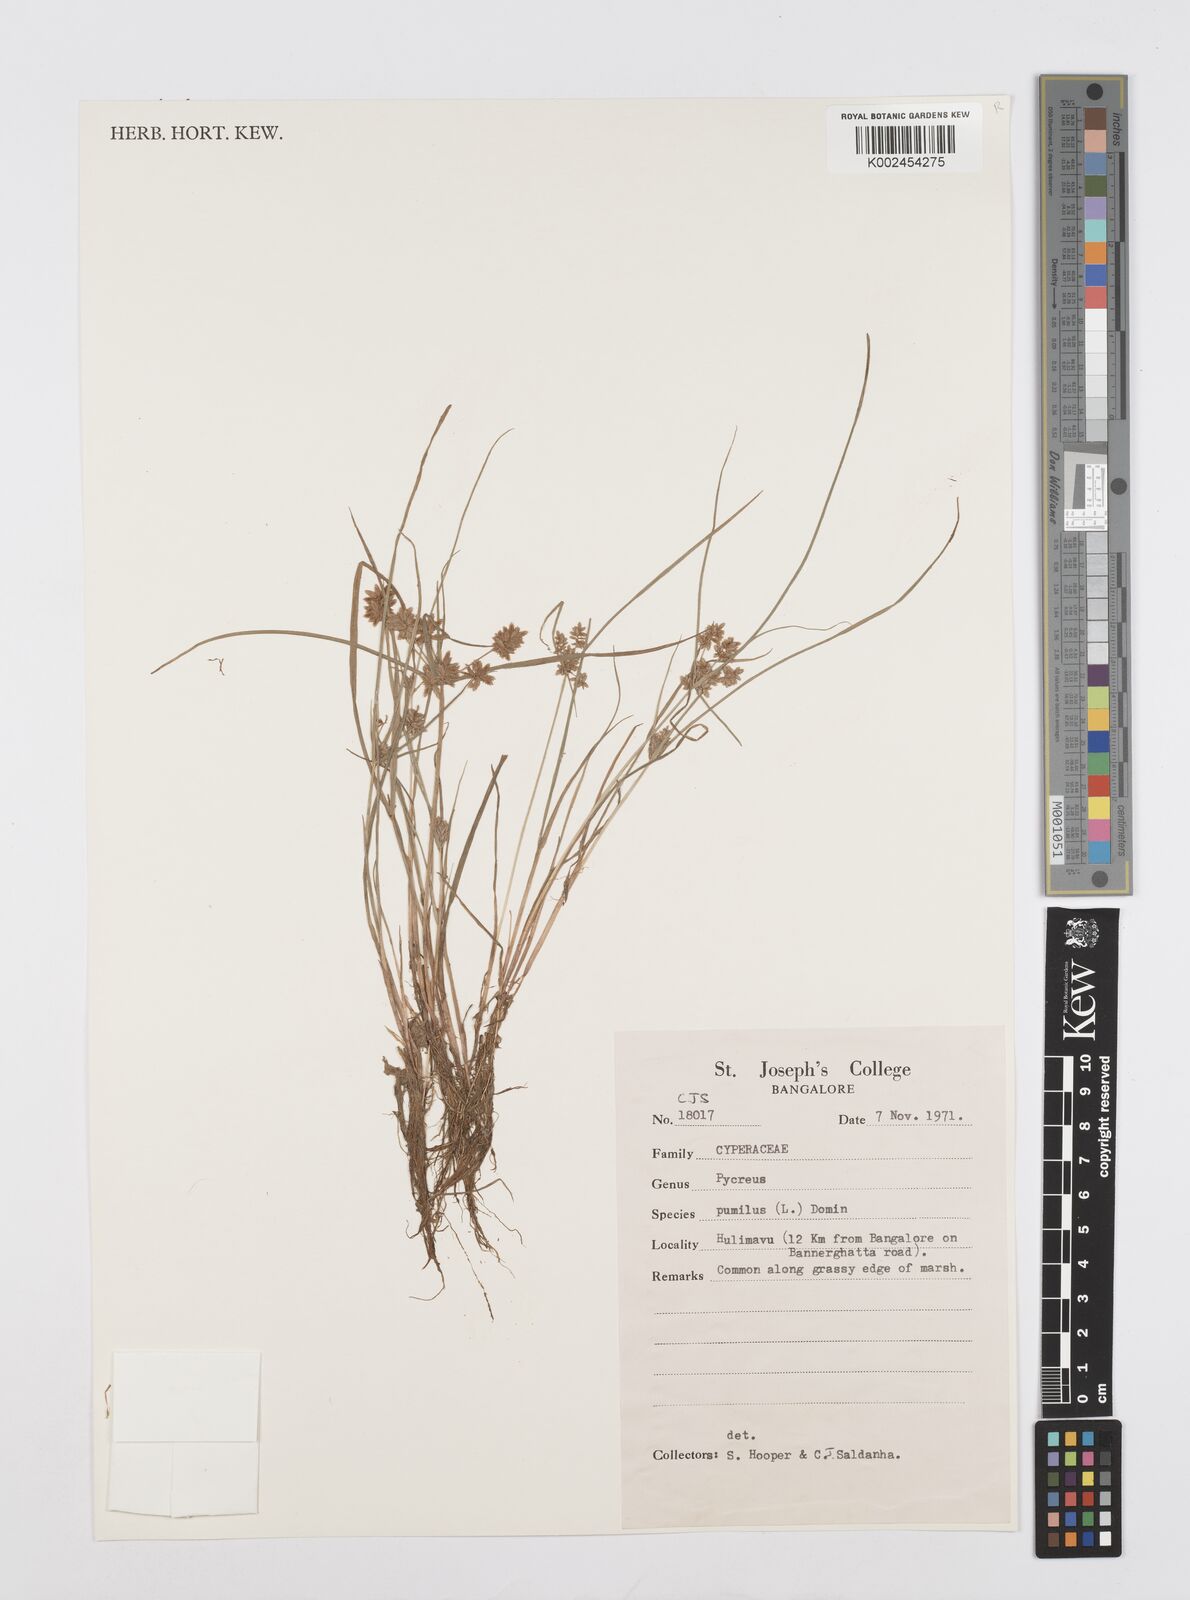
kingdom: Plantae
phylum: Tracheophyta
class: Liliopsida
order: Poales
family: Cyperaceae
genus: Cyperus
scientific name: Cyperus pumilus
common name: Low flatsedge
